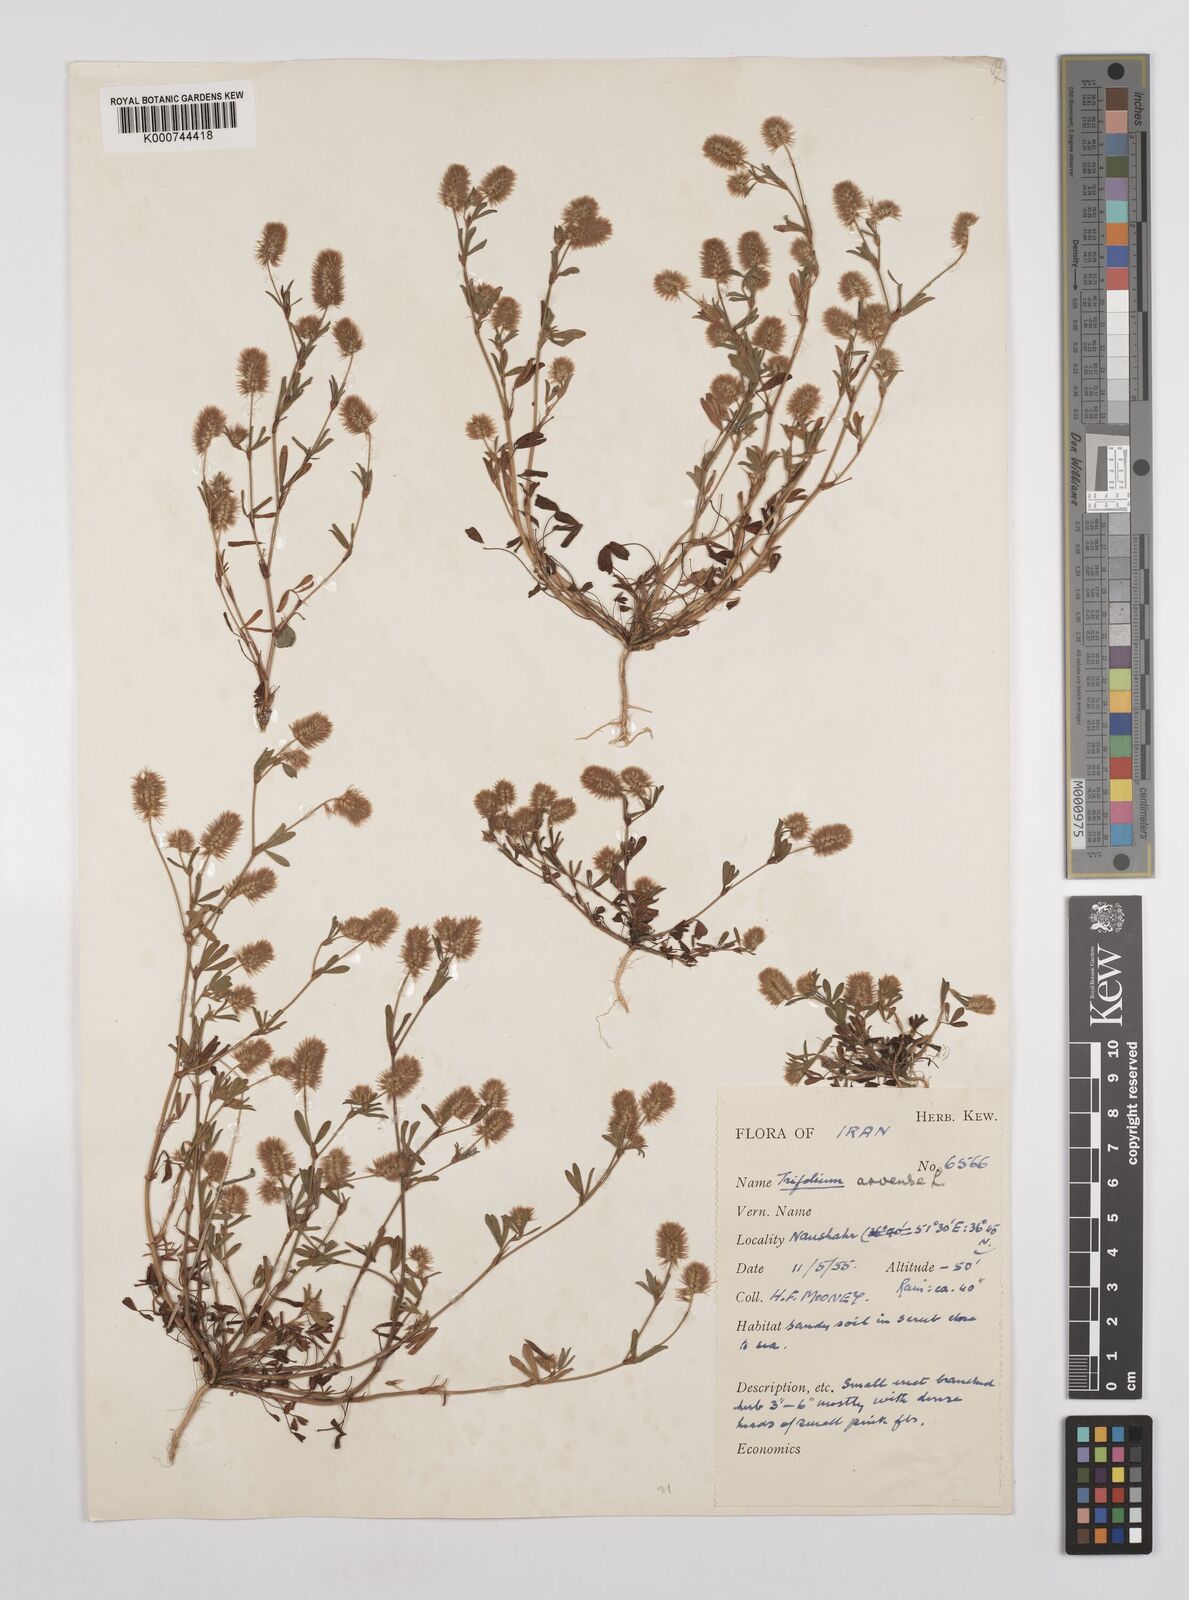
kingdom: Plantae
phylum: Tracheophyta
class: Magnoliopsida
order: Fabales
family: Fabaceae
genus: Trifolium
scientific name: Trifolium arvense
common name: Hare's-foot clover
